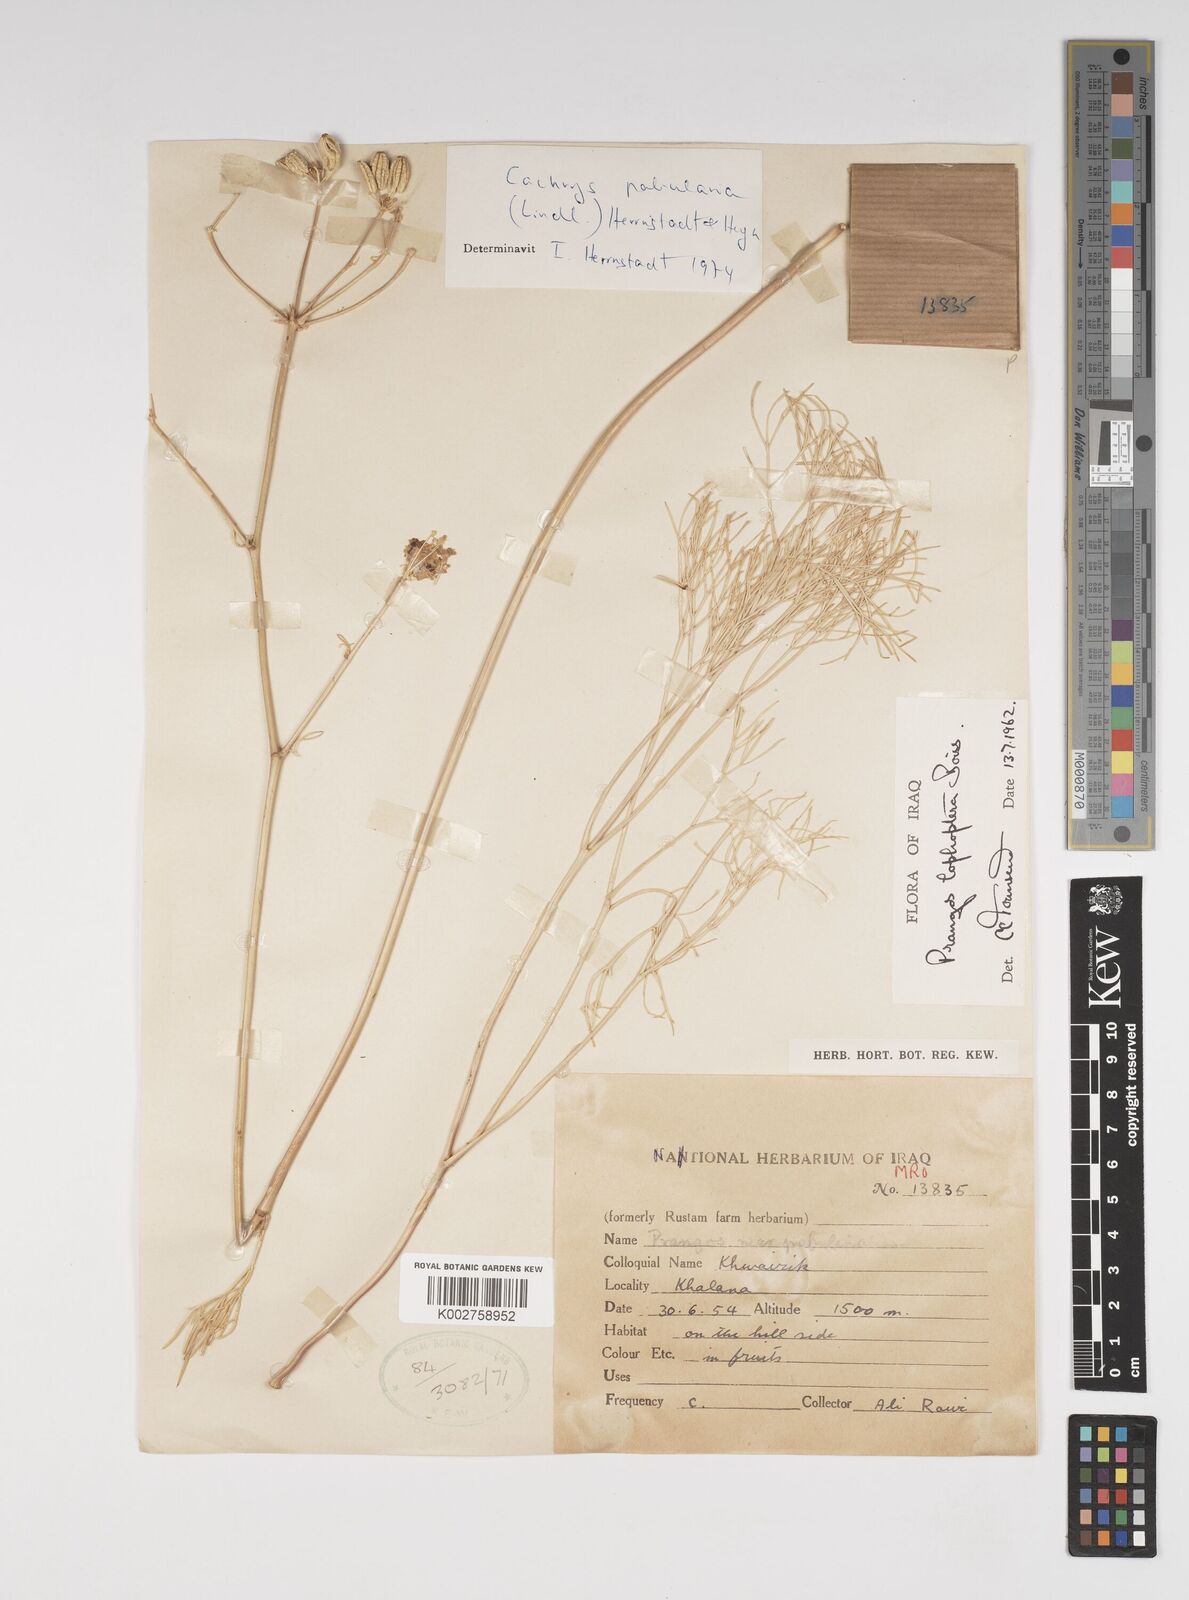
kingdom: Plantae
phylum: Tracheophyta
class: Magnoliopsida
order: Apiales
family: Apiaceae
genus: Prangos
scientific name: Prangos pabularia
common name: Yugan
